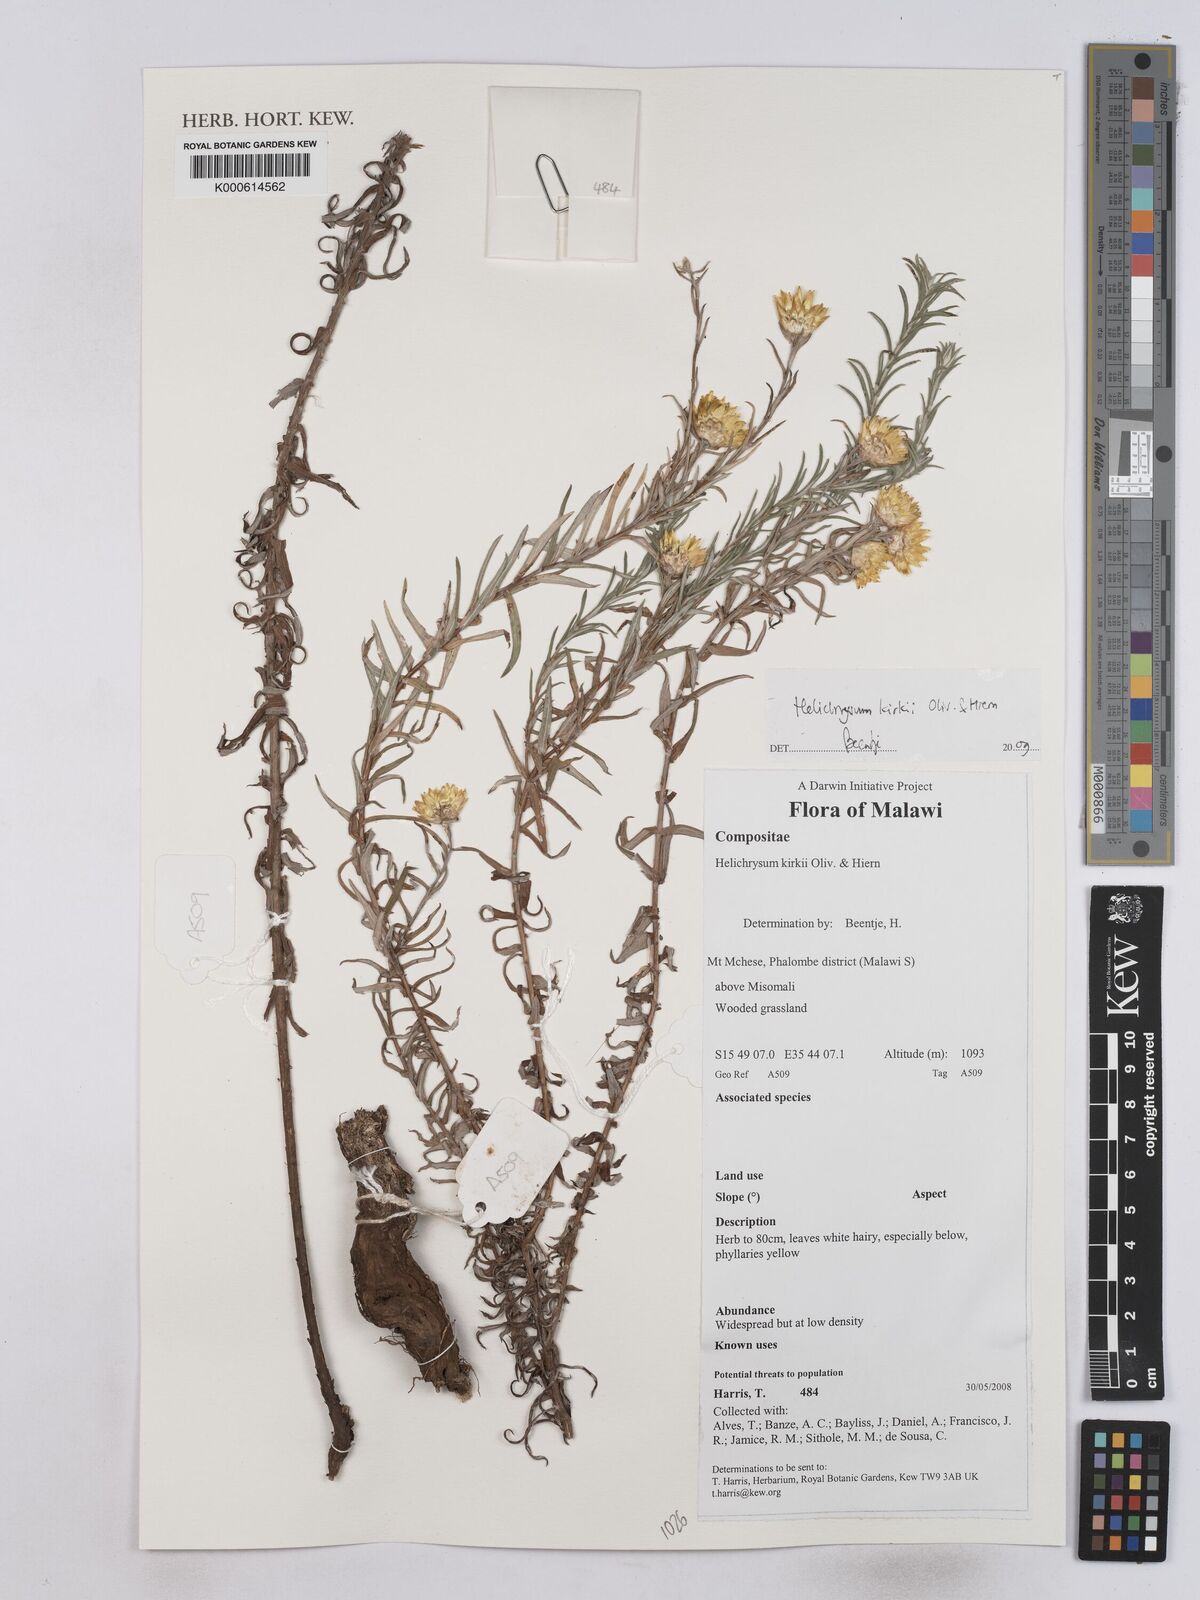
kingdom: Plantae
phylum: Tracheophyta
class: Magnoliopsida
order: Asterales
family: Asteraceae
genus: Helichrysum
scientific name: Helichrysum kirkii
